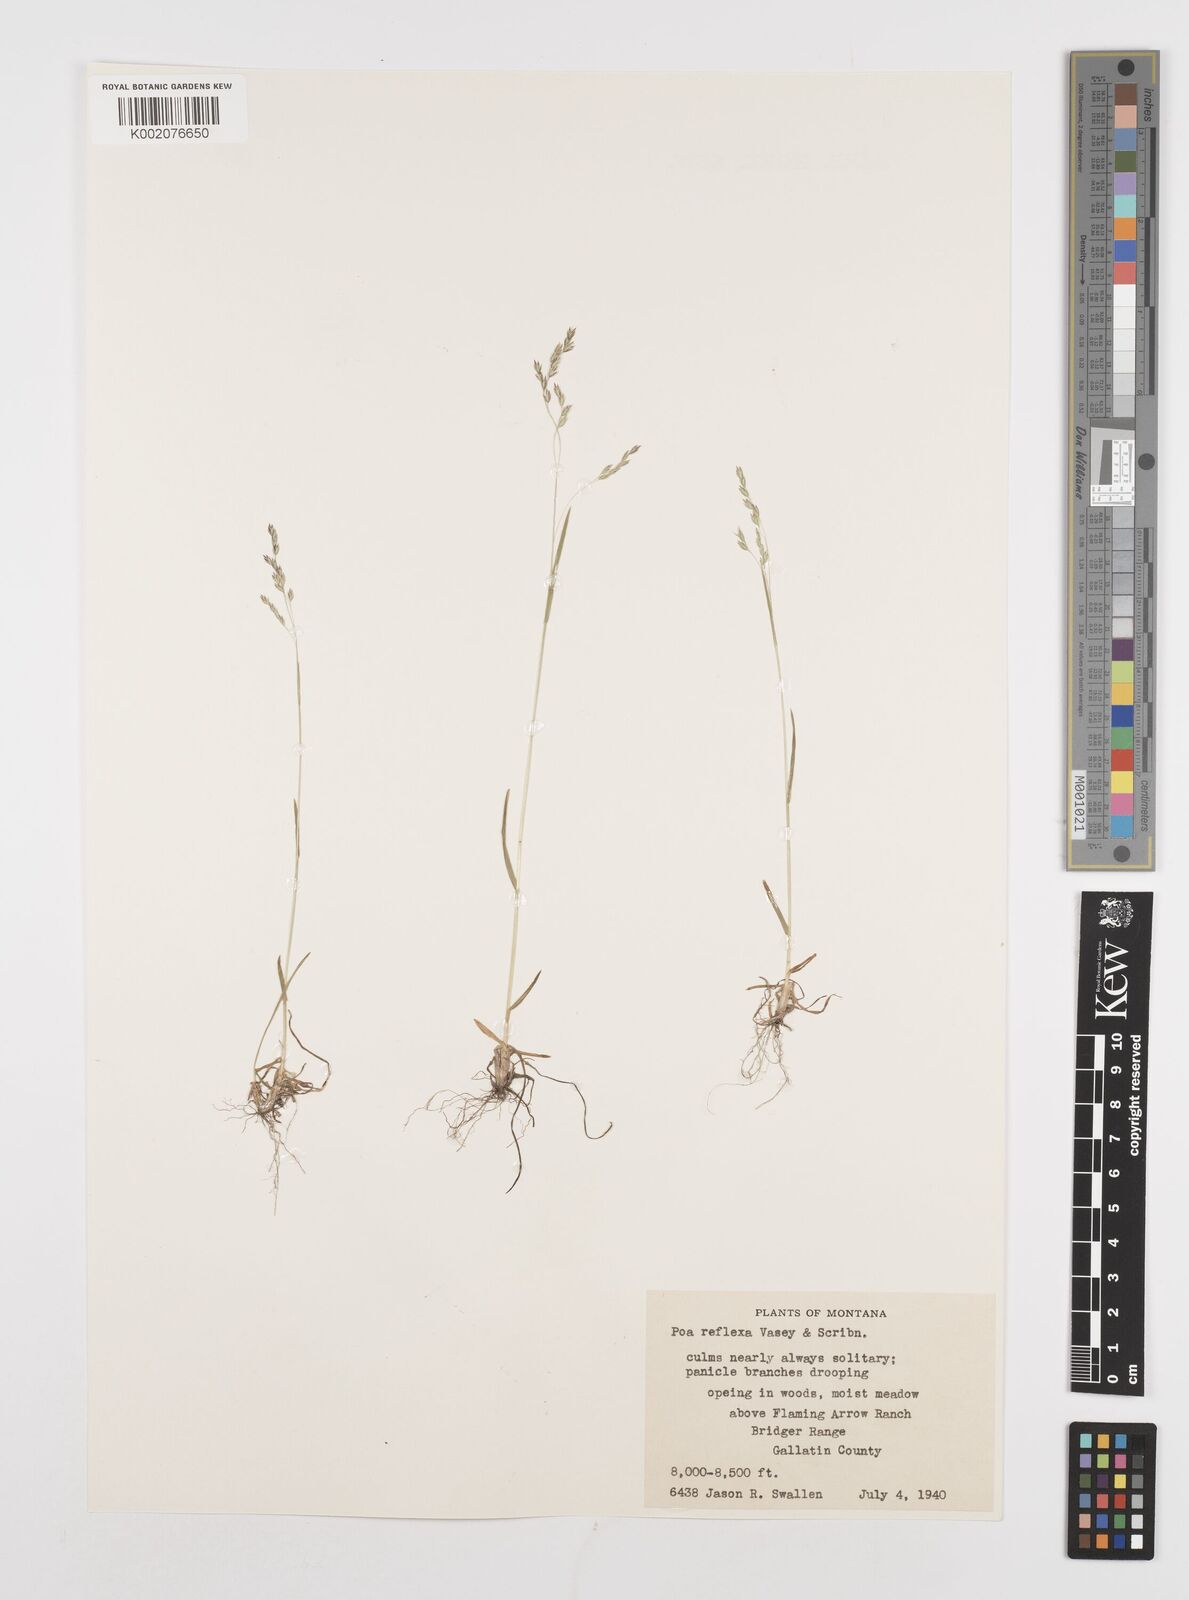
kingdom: Plantae
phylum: Tracheophyta
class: Liliopsida
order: Poales
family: Poaceae
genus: Poa
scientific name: Poa reflexa
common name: Nodding bluegrass
